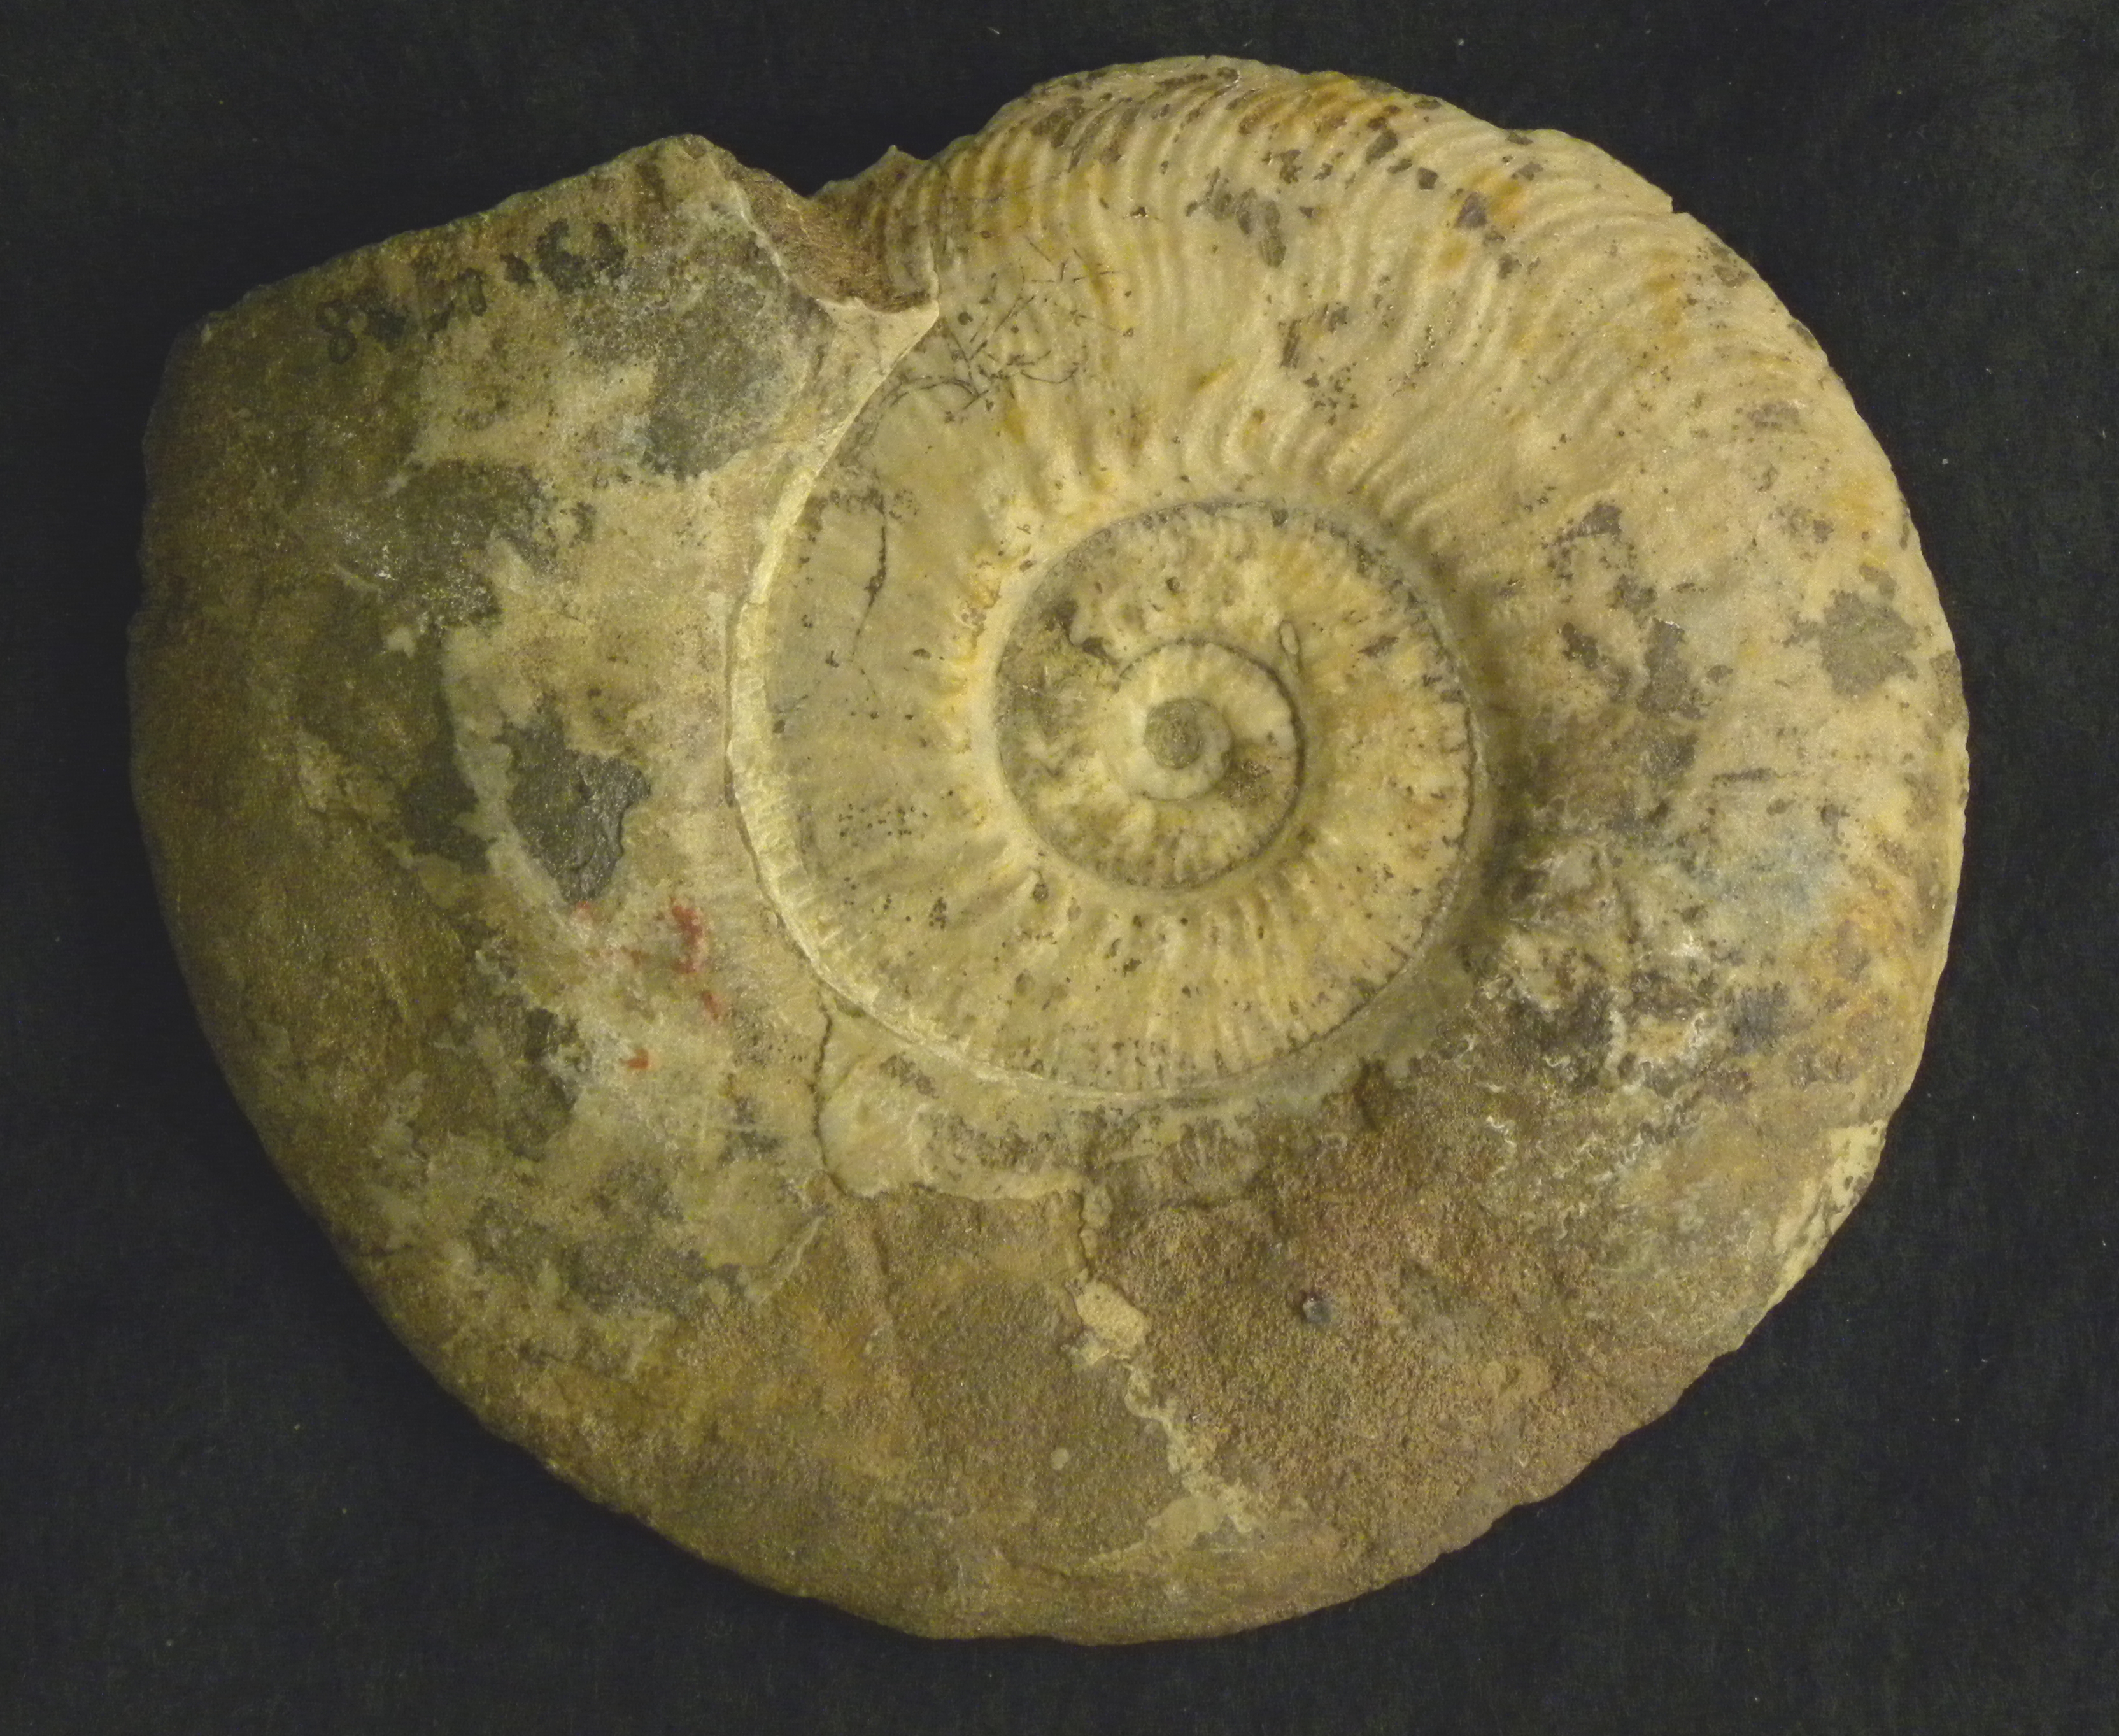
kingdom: Animalia
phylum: Mollusca
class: Cephalopoda
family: Hildoceratidae
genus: Phlyseogrammoceras
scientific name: Phlyseogrammoceras dispansum
